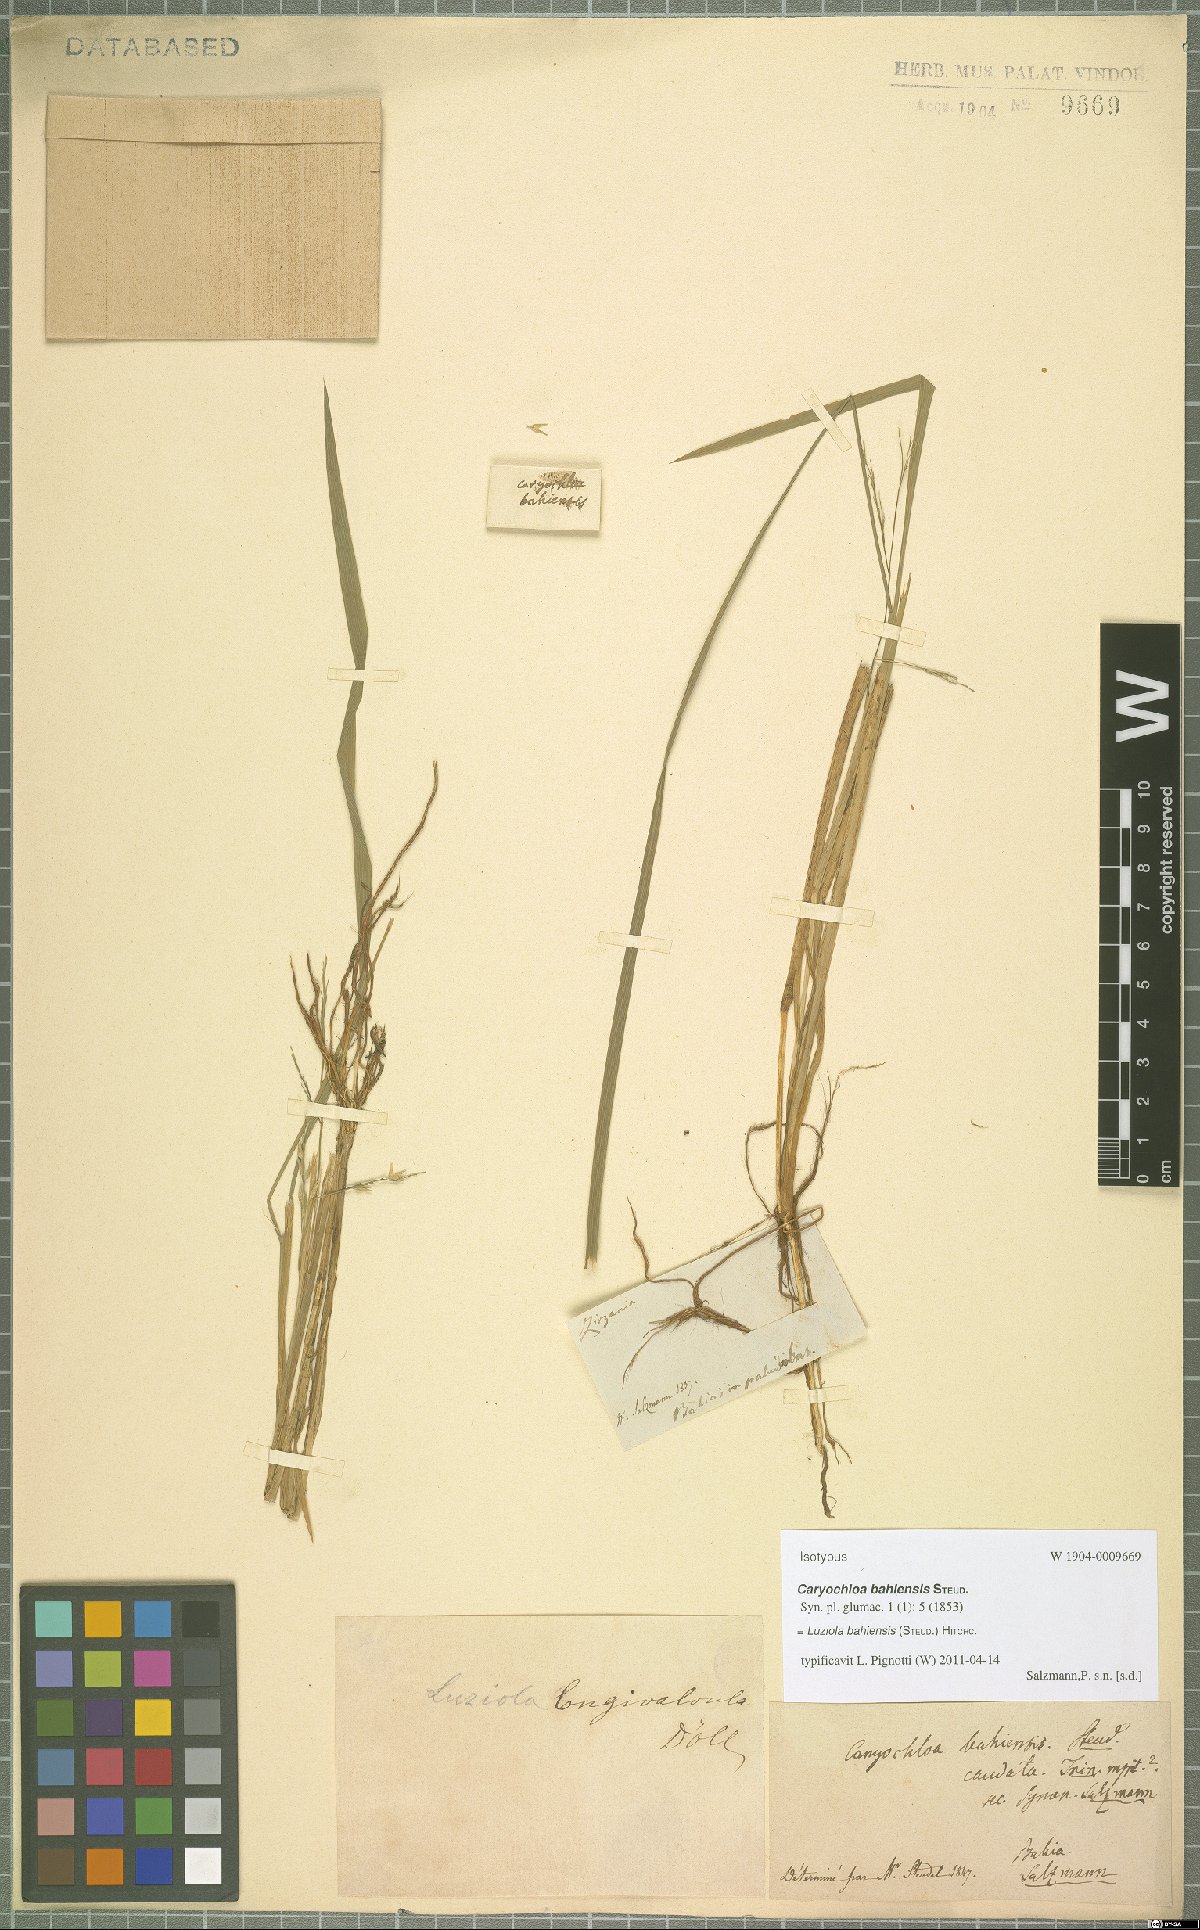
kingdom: Plantae
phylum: Tracheophyta
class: Liliopsida
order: Poales
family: Poaceae
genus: Luziola
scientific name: Luziola bahiensis
